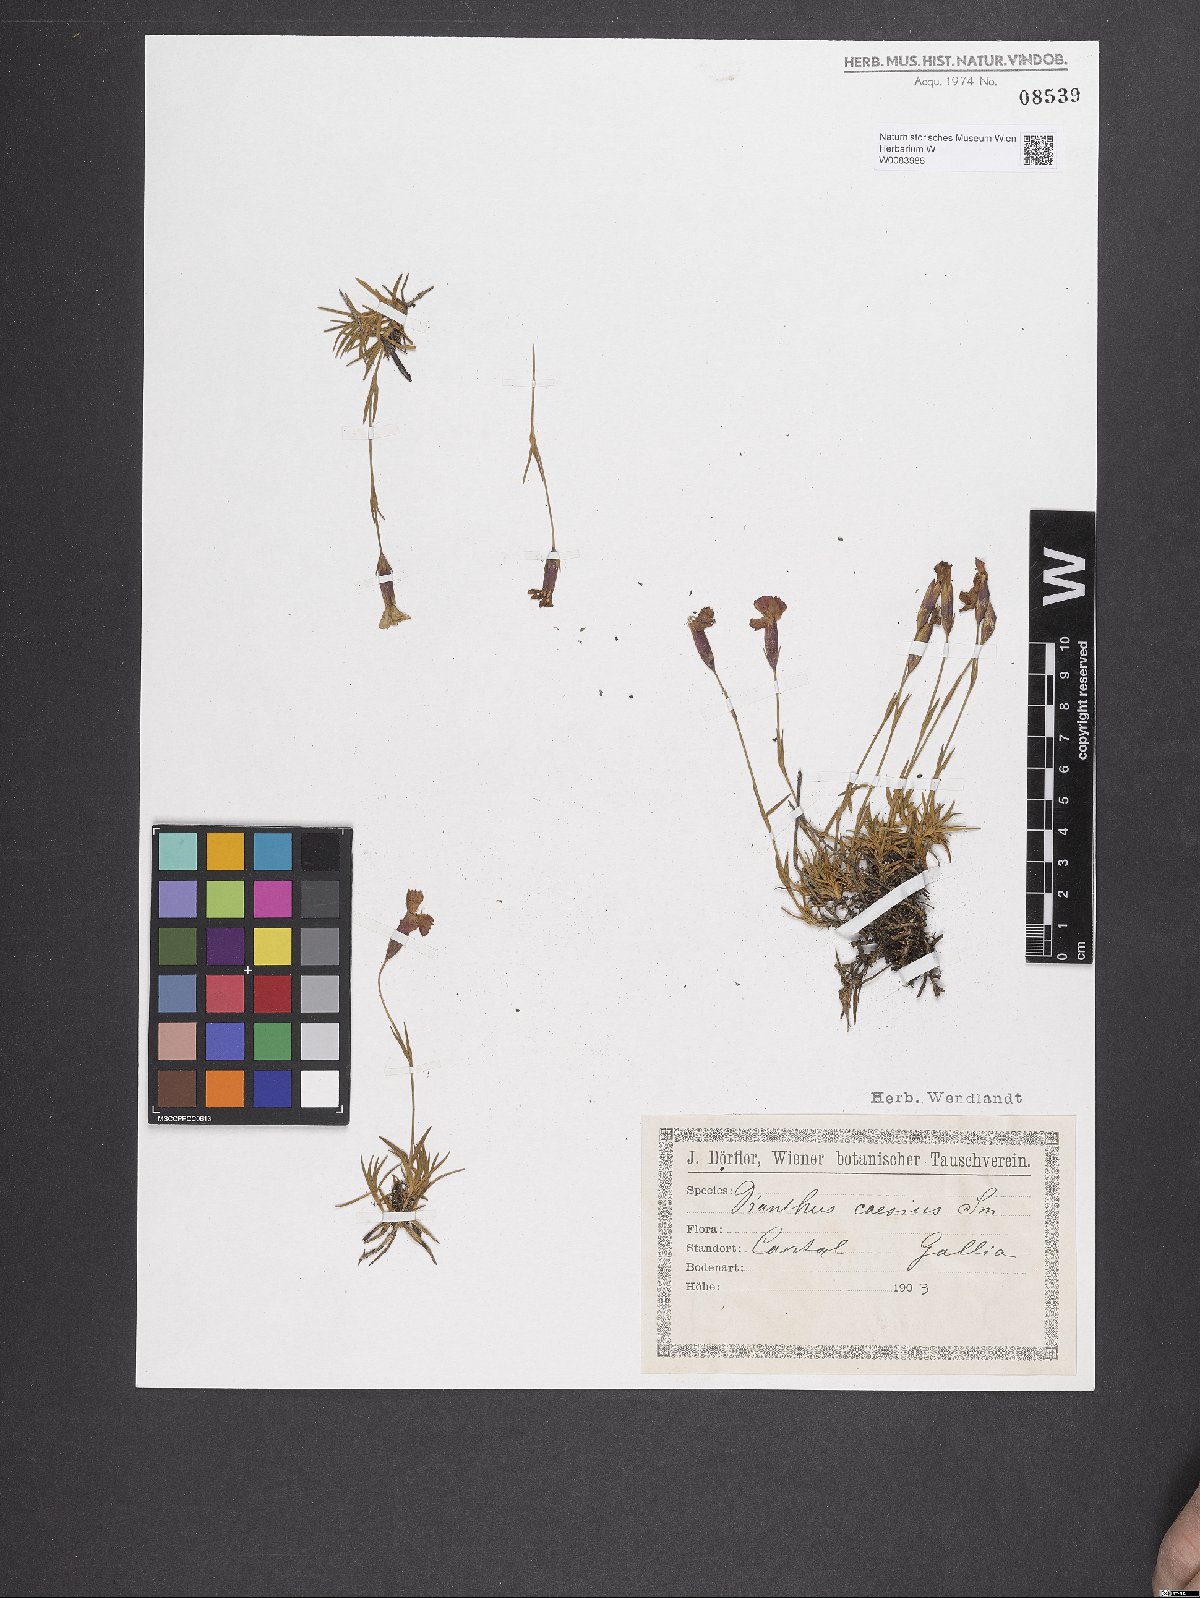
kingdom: Plantae
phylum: Tracheophyta
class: Magnoliopsida
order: Caryophyllales
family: Caryophyllaceae
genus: Dianthus
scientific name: Dianthus gratianopolitanus
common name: Cheddar pink
